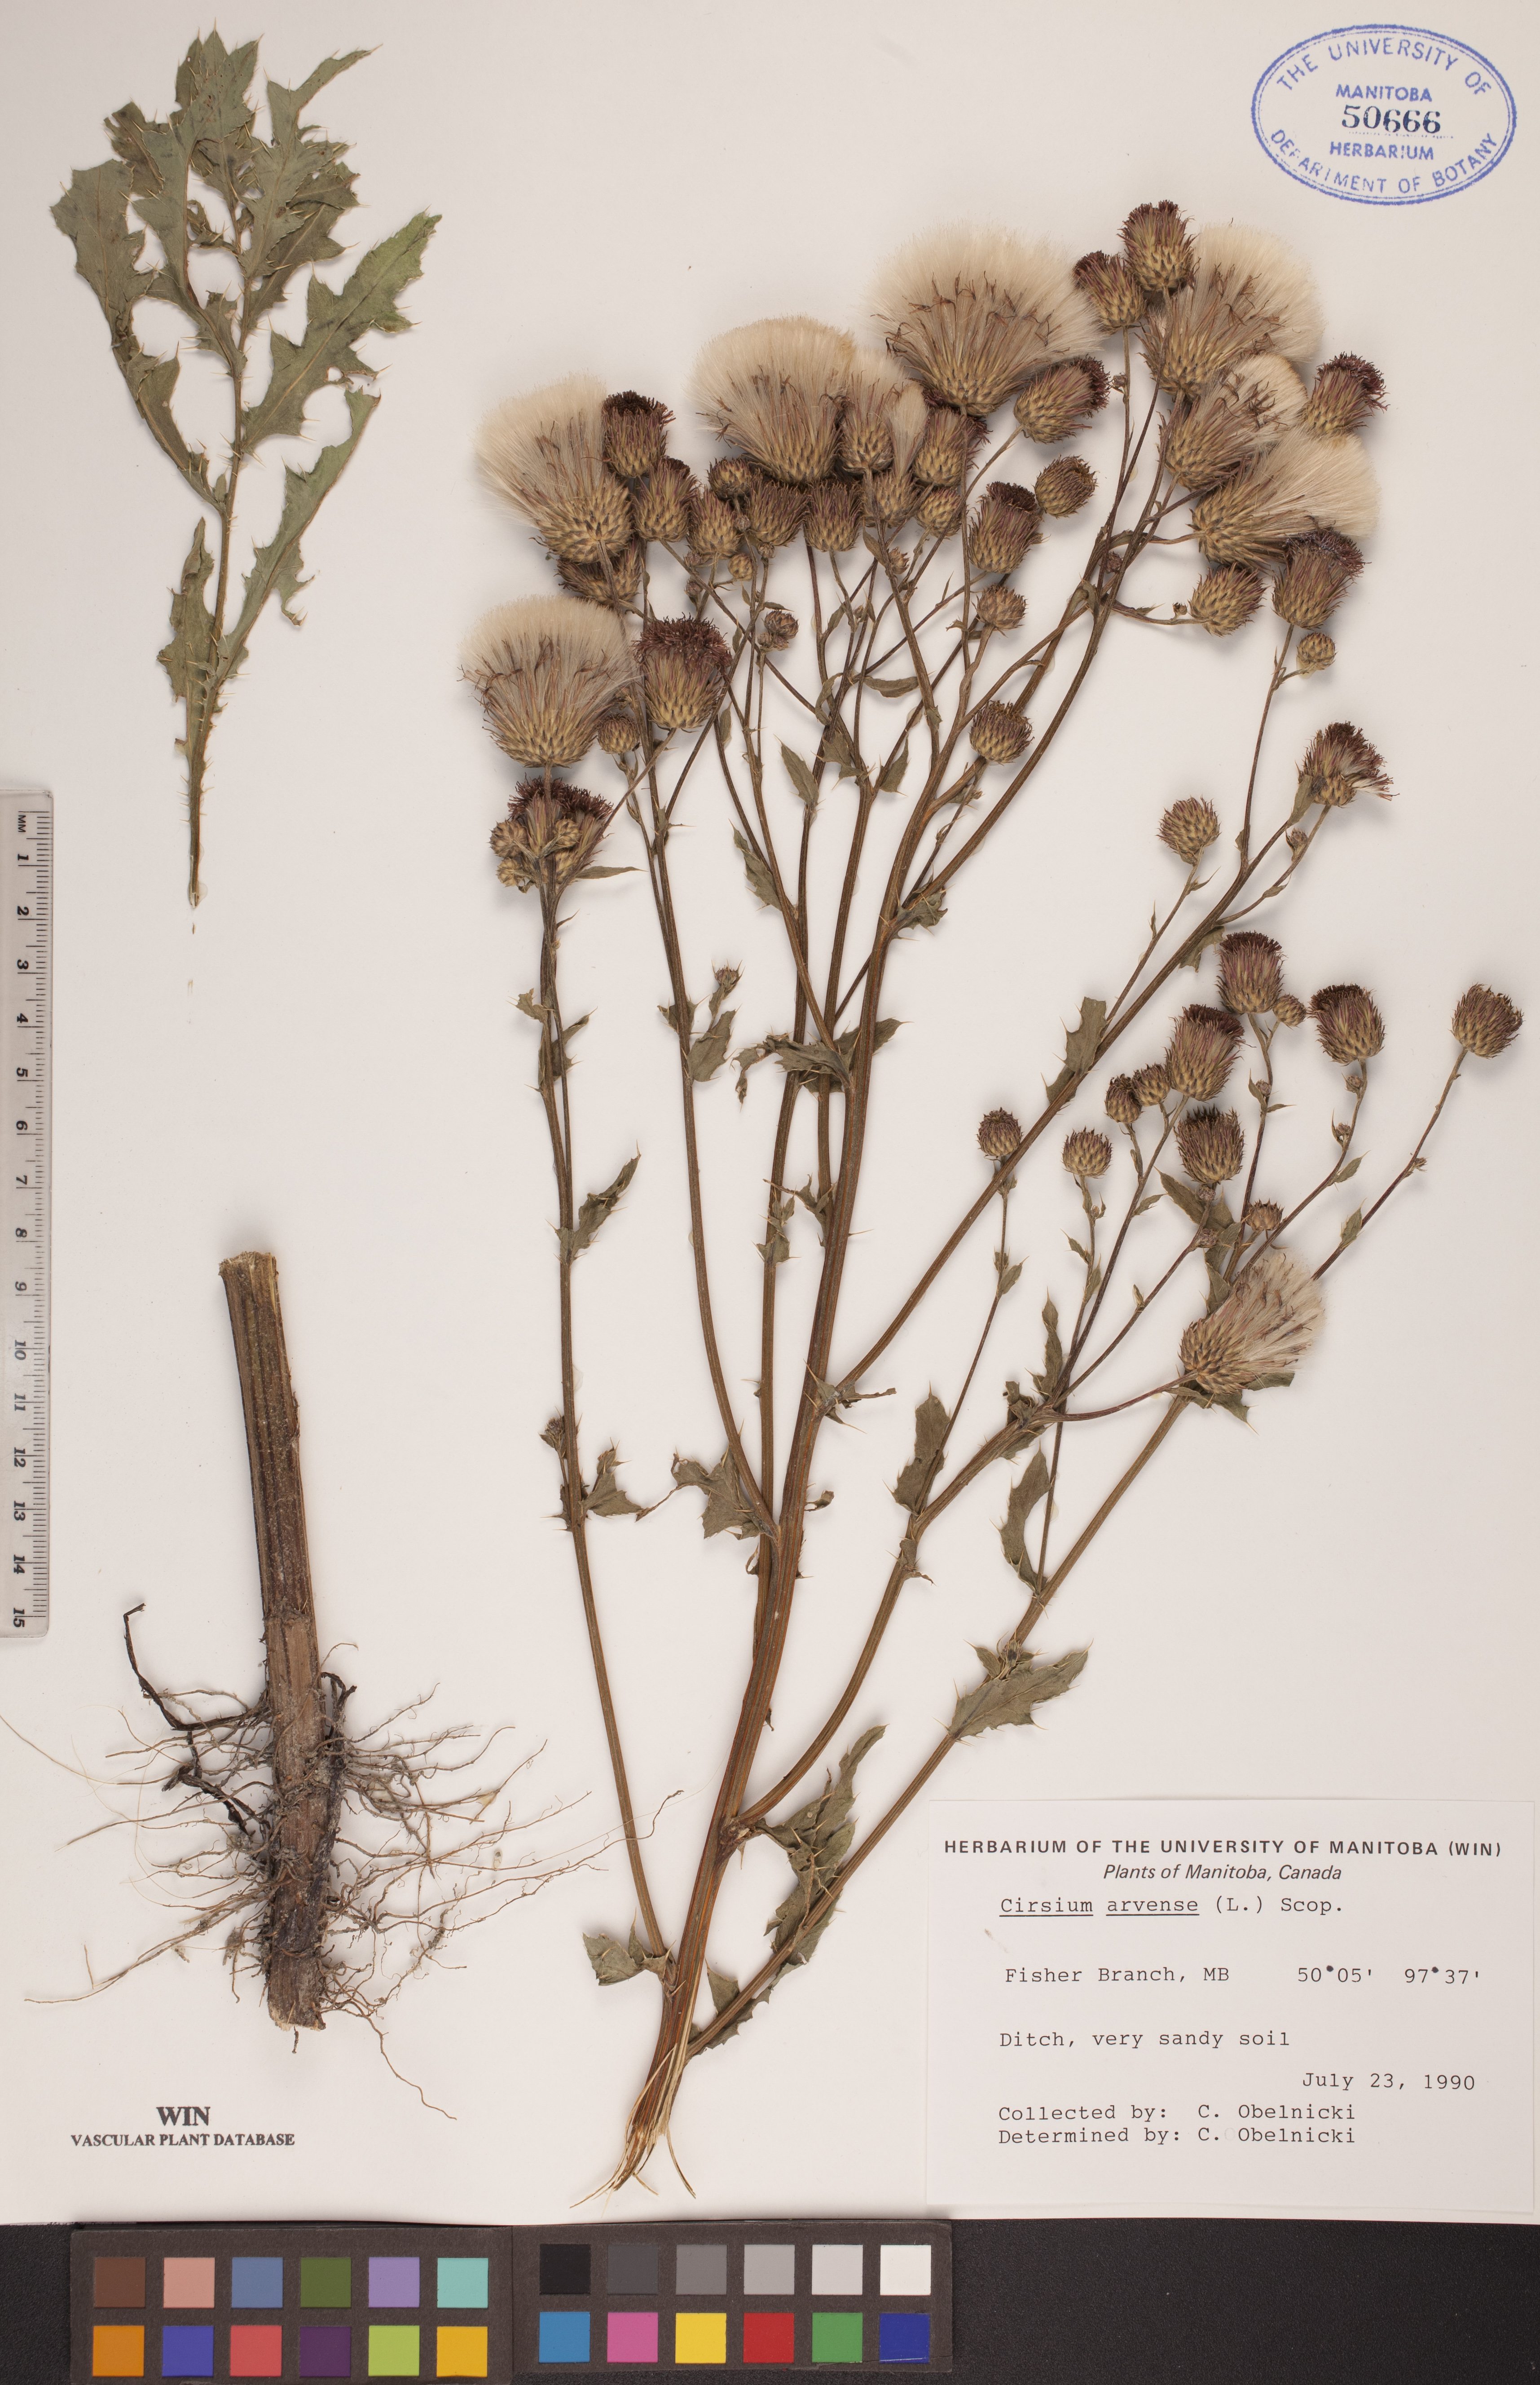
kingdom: Plantae
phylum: Tracheophyta
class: Magnoliopsida
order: Asterales
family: Asteraceae
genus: Cirsium
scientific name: Cirsium arvense
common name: Creeping thistle
